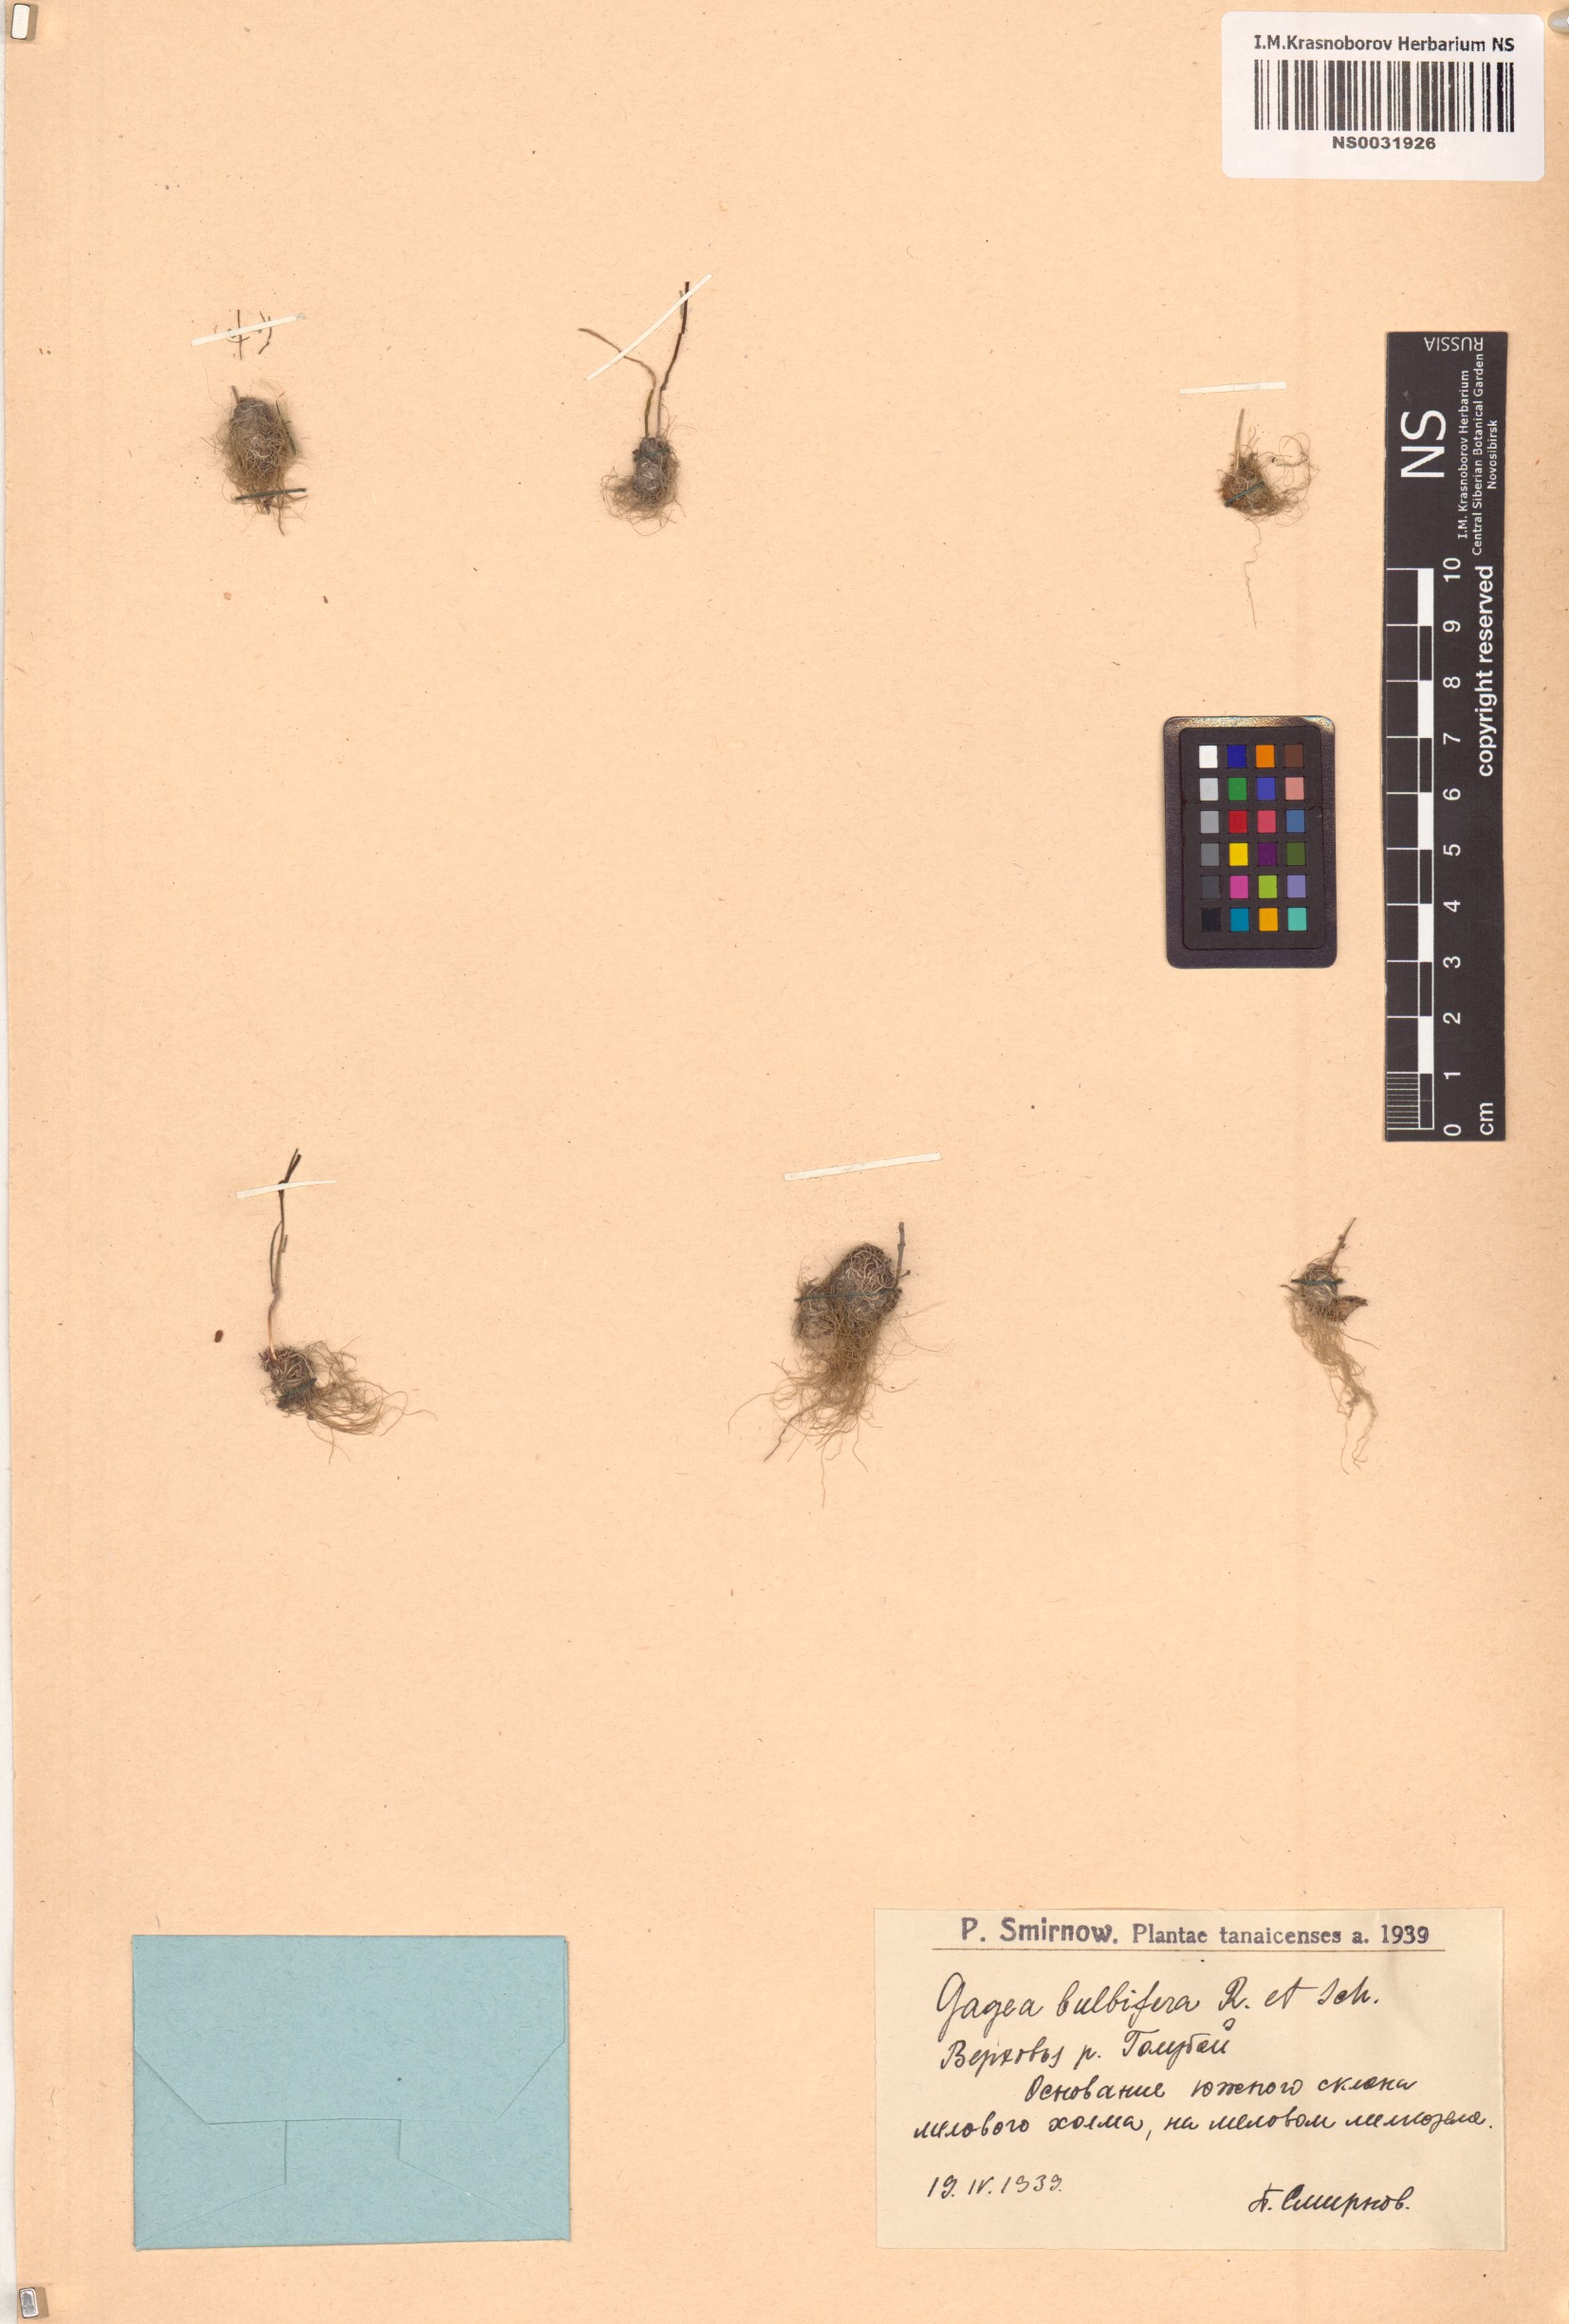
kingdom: Plantae
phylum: Tracheophyta
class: Liliopsida
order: Liliales
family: Liliaceae
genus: Gagea
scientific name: Gagea bulbifera
